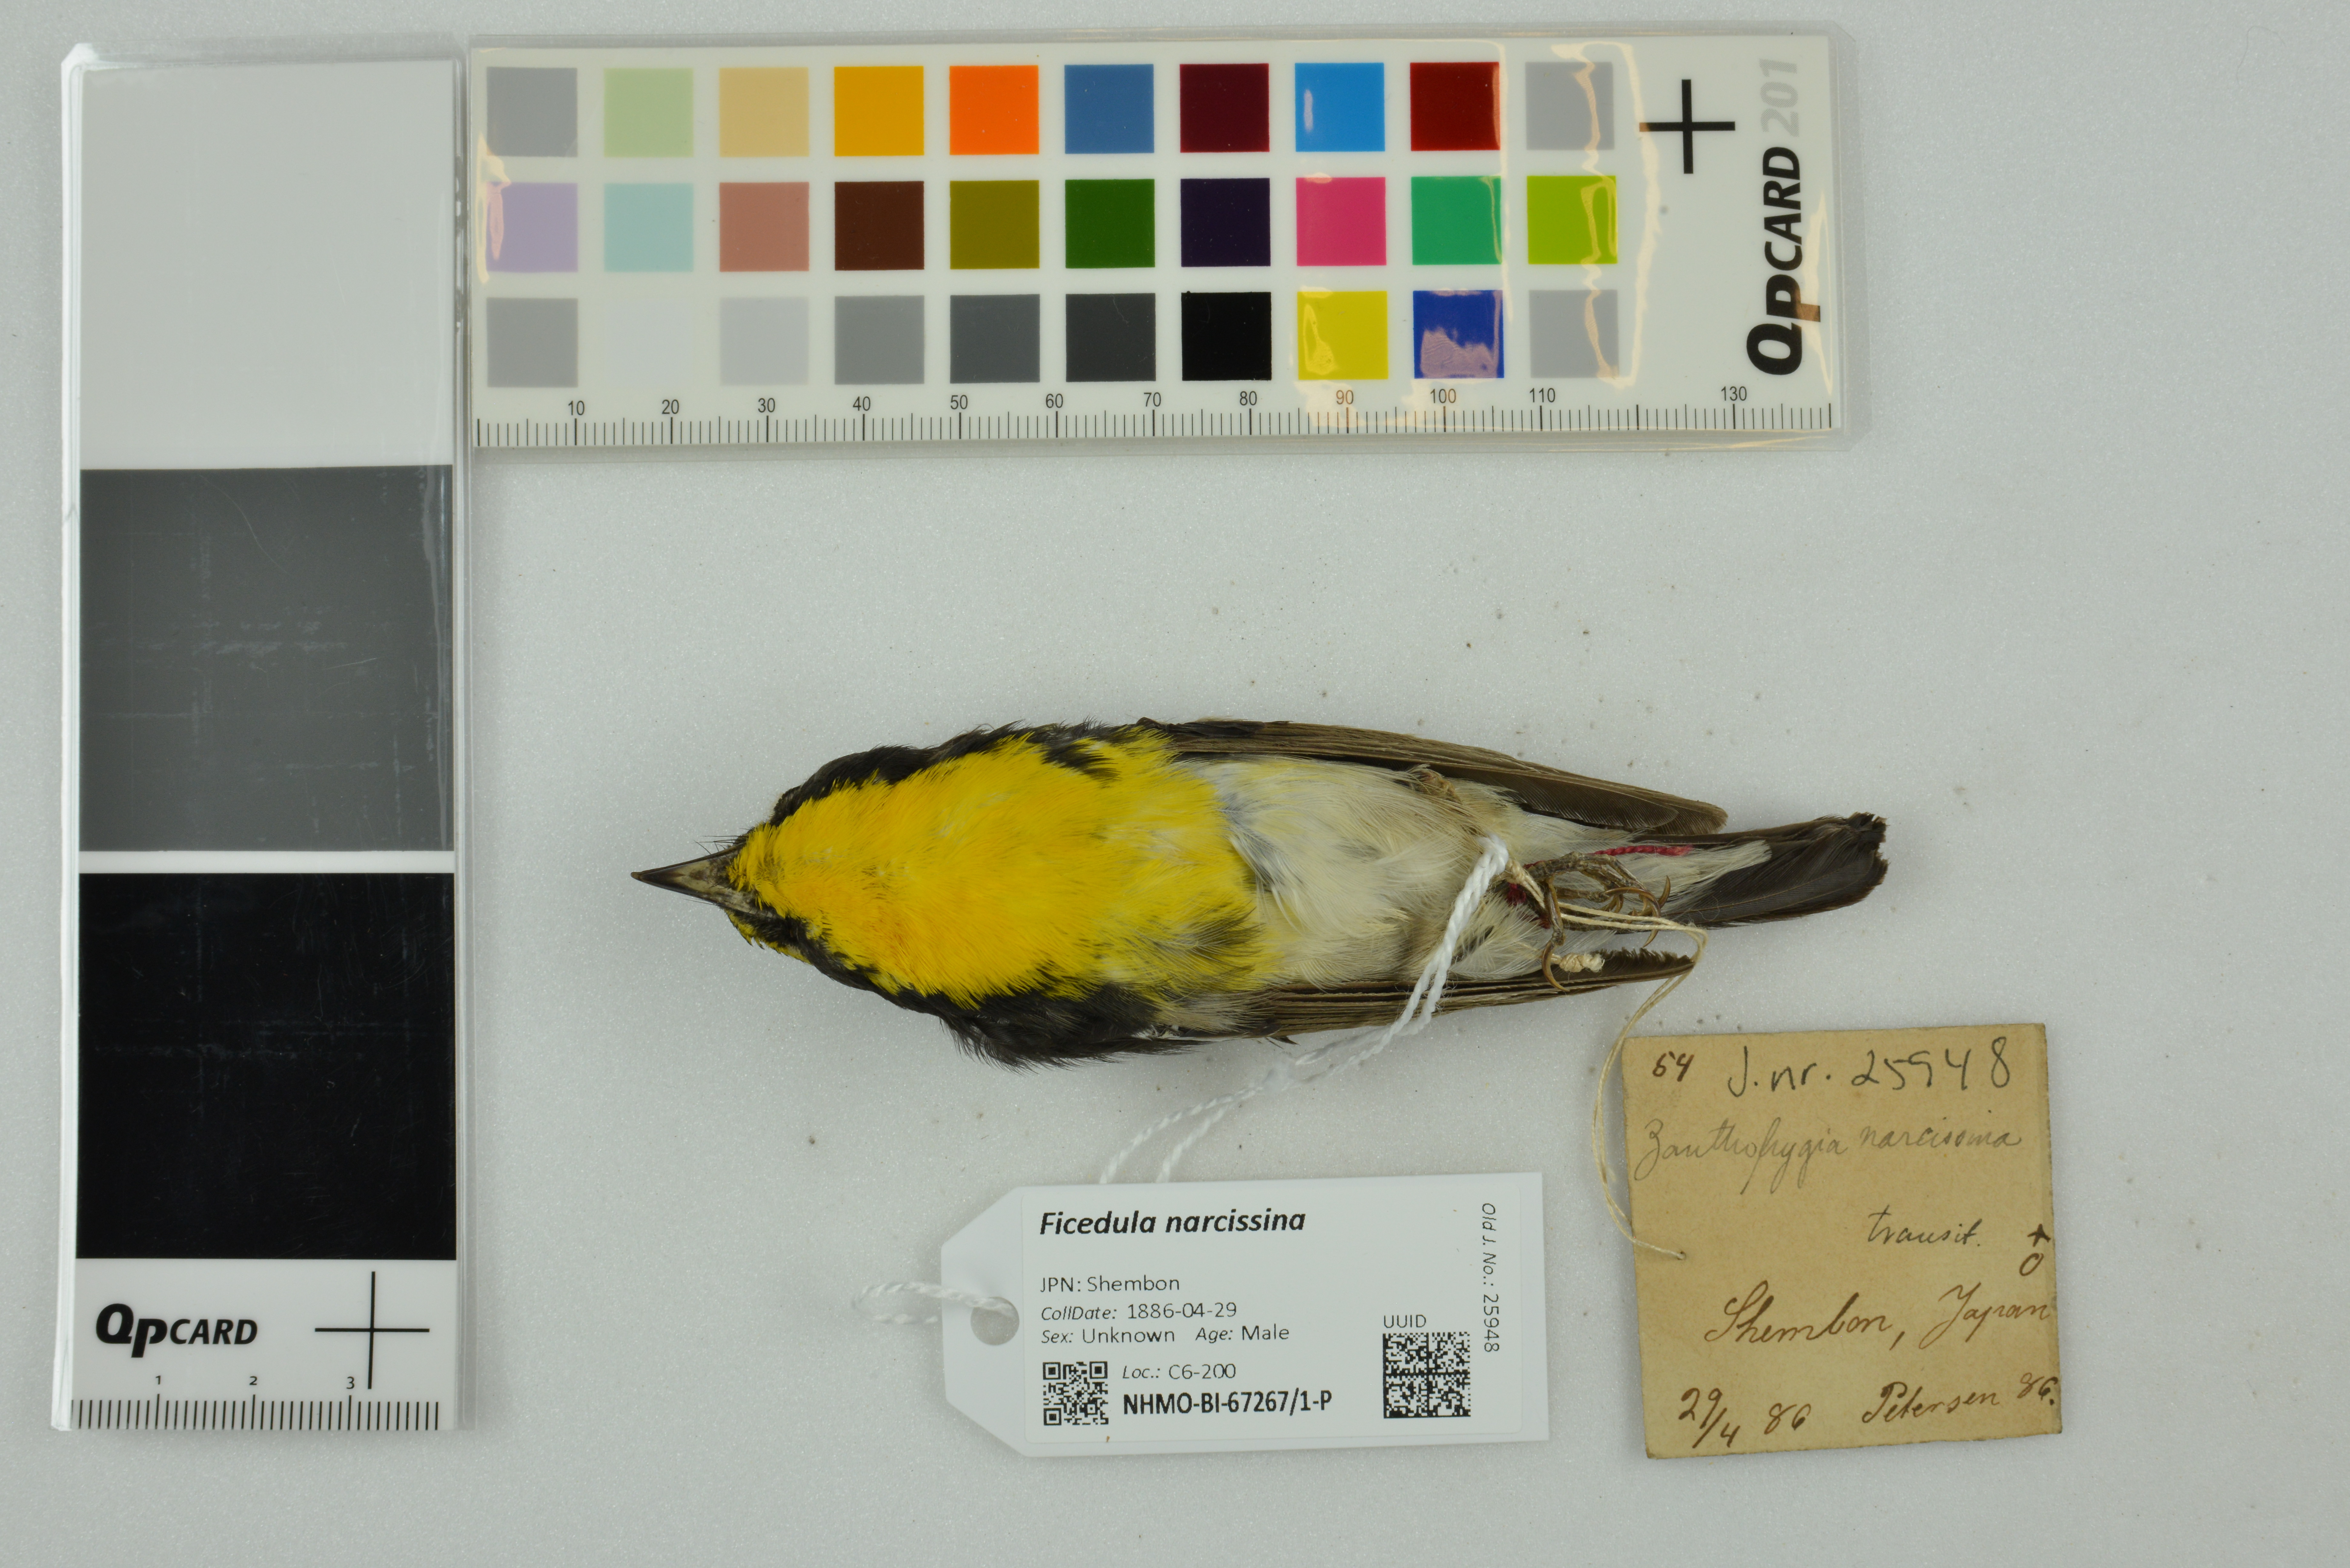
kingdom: Animalia
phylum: Chordata
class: Aves
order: Passeriformes
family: Muscicapidae
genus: Ficedula
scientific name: Ficedula narcissina
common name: Narcissus flycatcher
